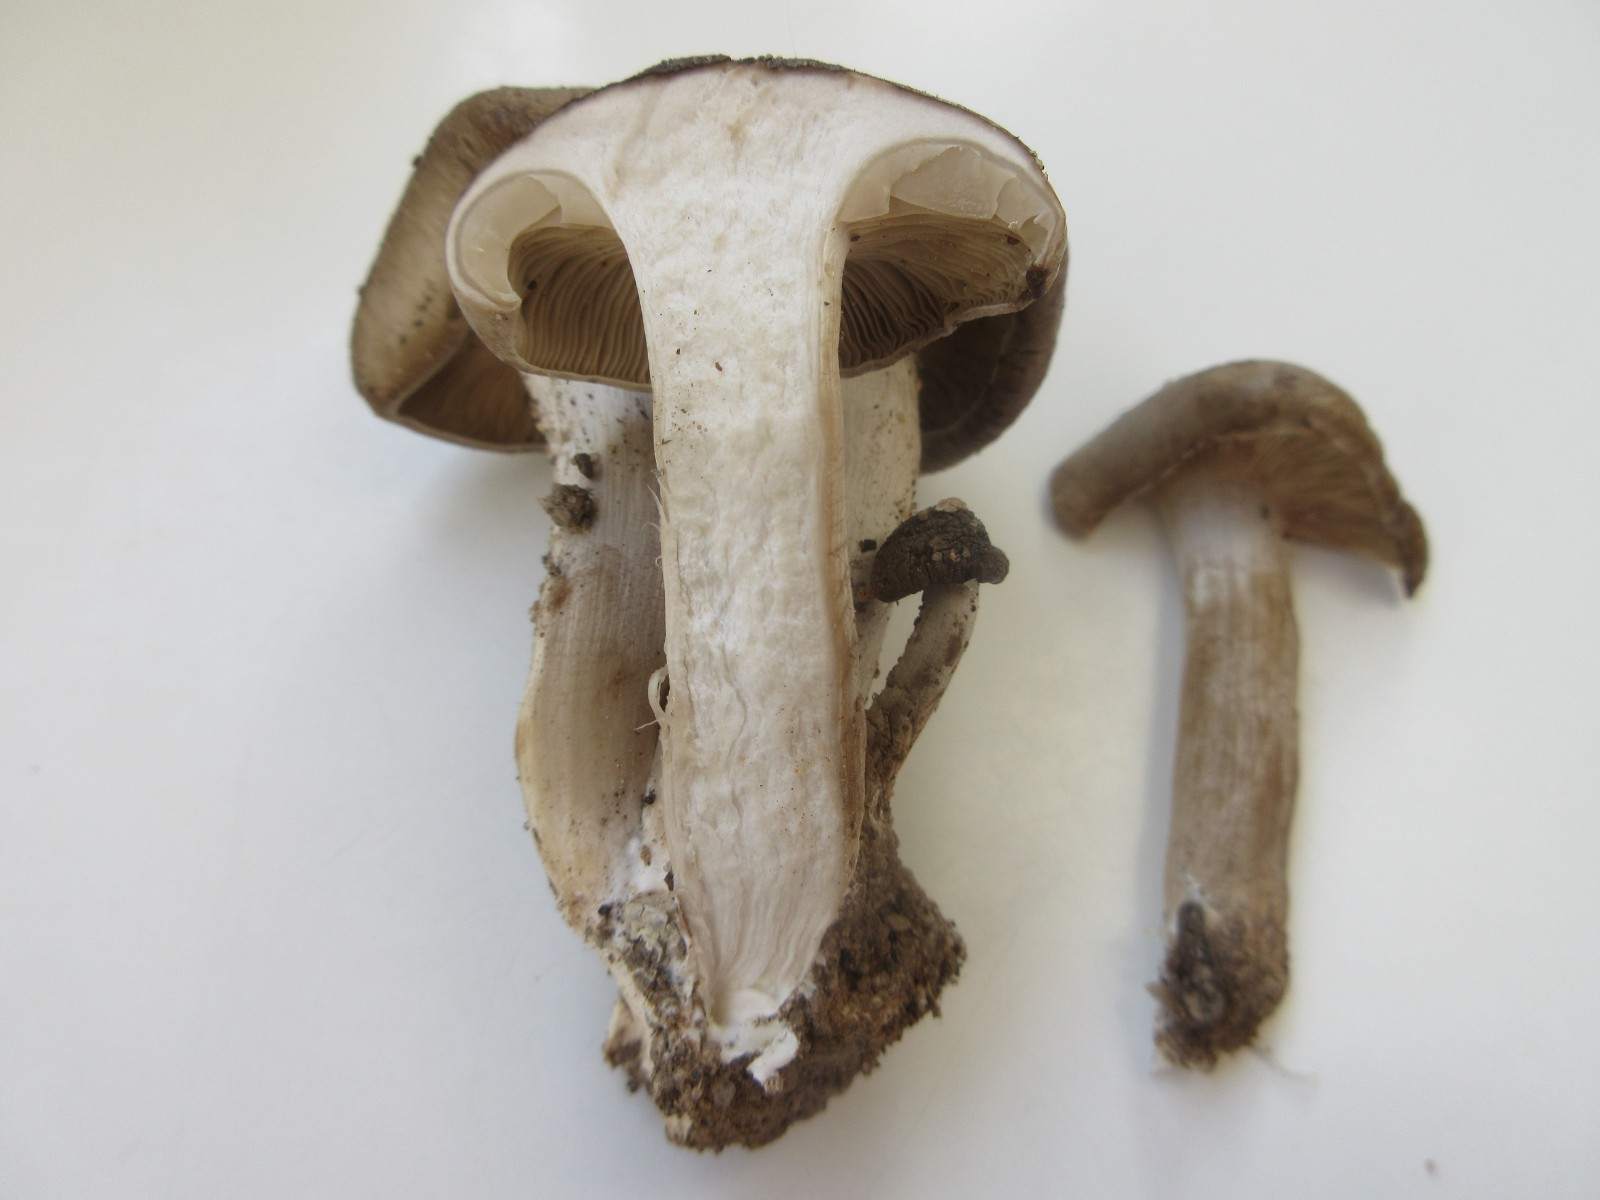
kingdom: Fungi
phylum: Basidiomycota
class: Agaricomycetes
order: Agaricales
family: Lyophyllaceae
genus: Lyophyllum
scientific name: Lyophyllum decastes
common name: Clustered domecap
